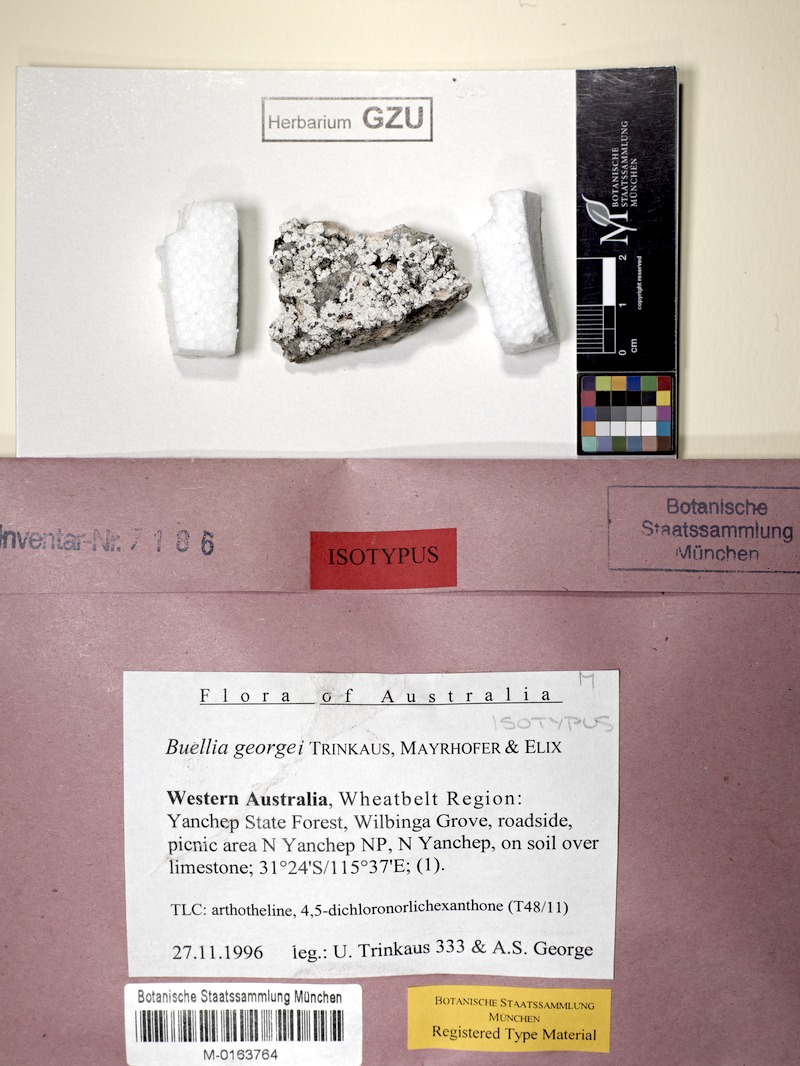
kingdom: Fungi
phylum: Ascomycota
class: Lecanoromycetes
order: Caliciales
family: Caliciaceae
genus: Buellia
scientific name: Buellia georgei
